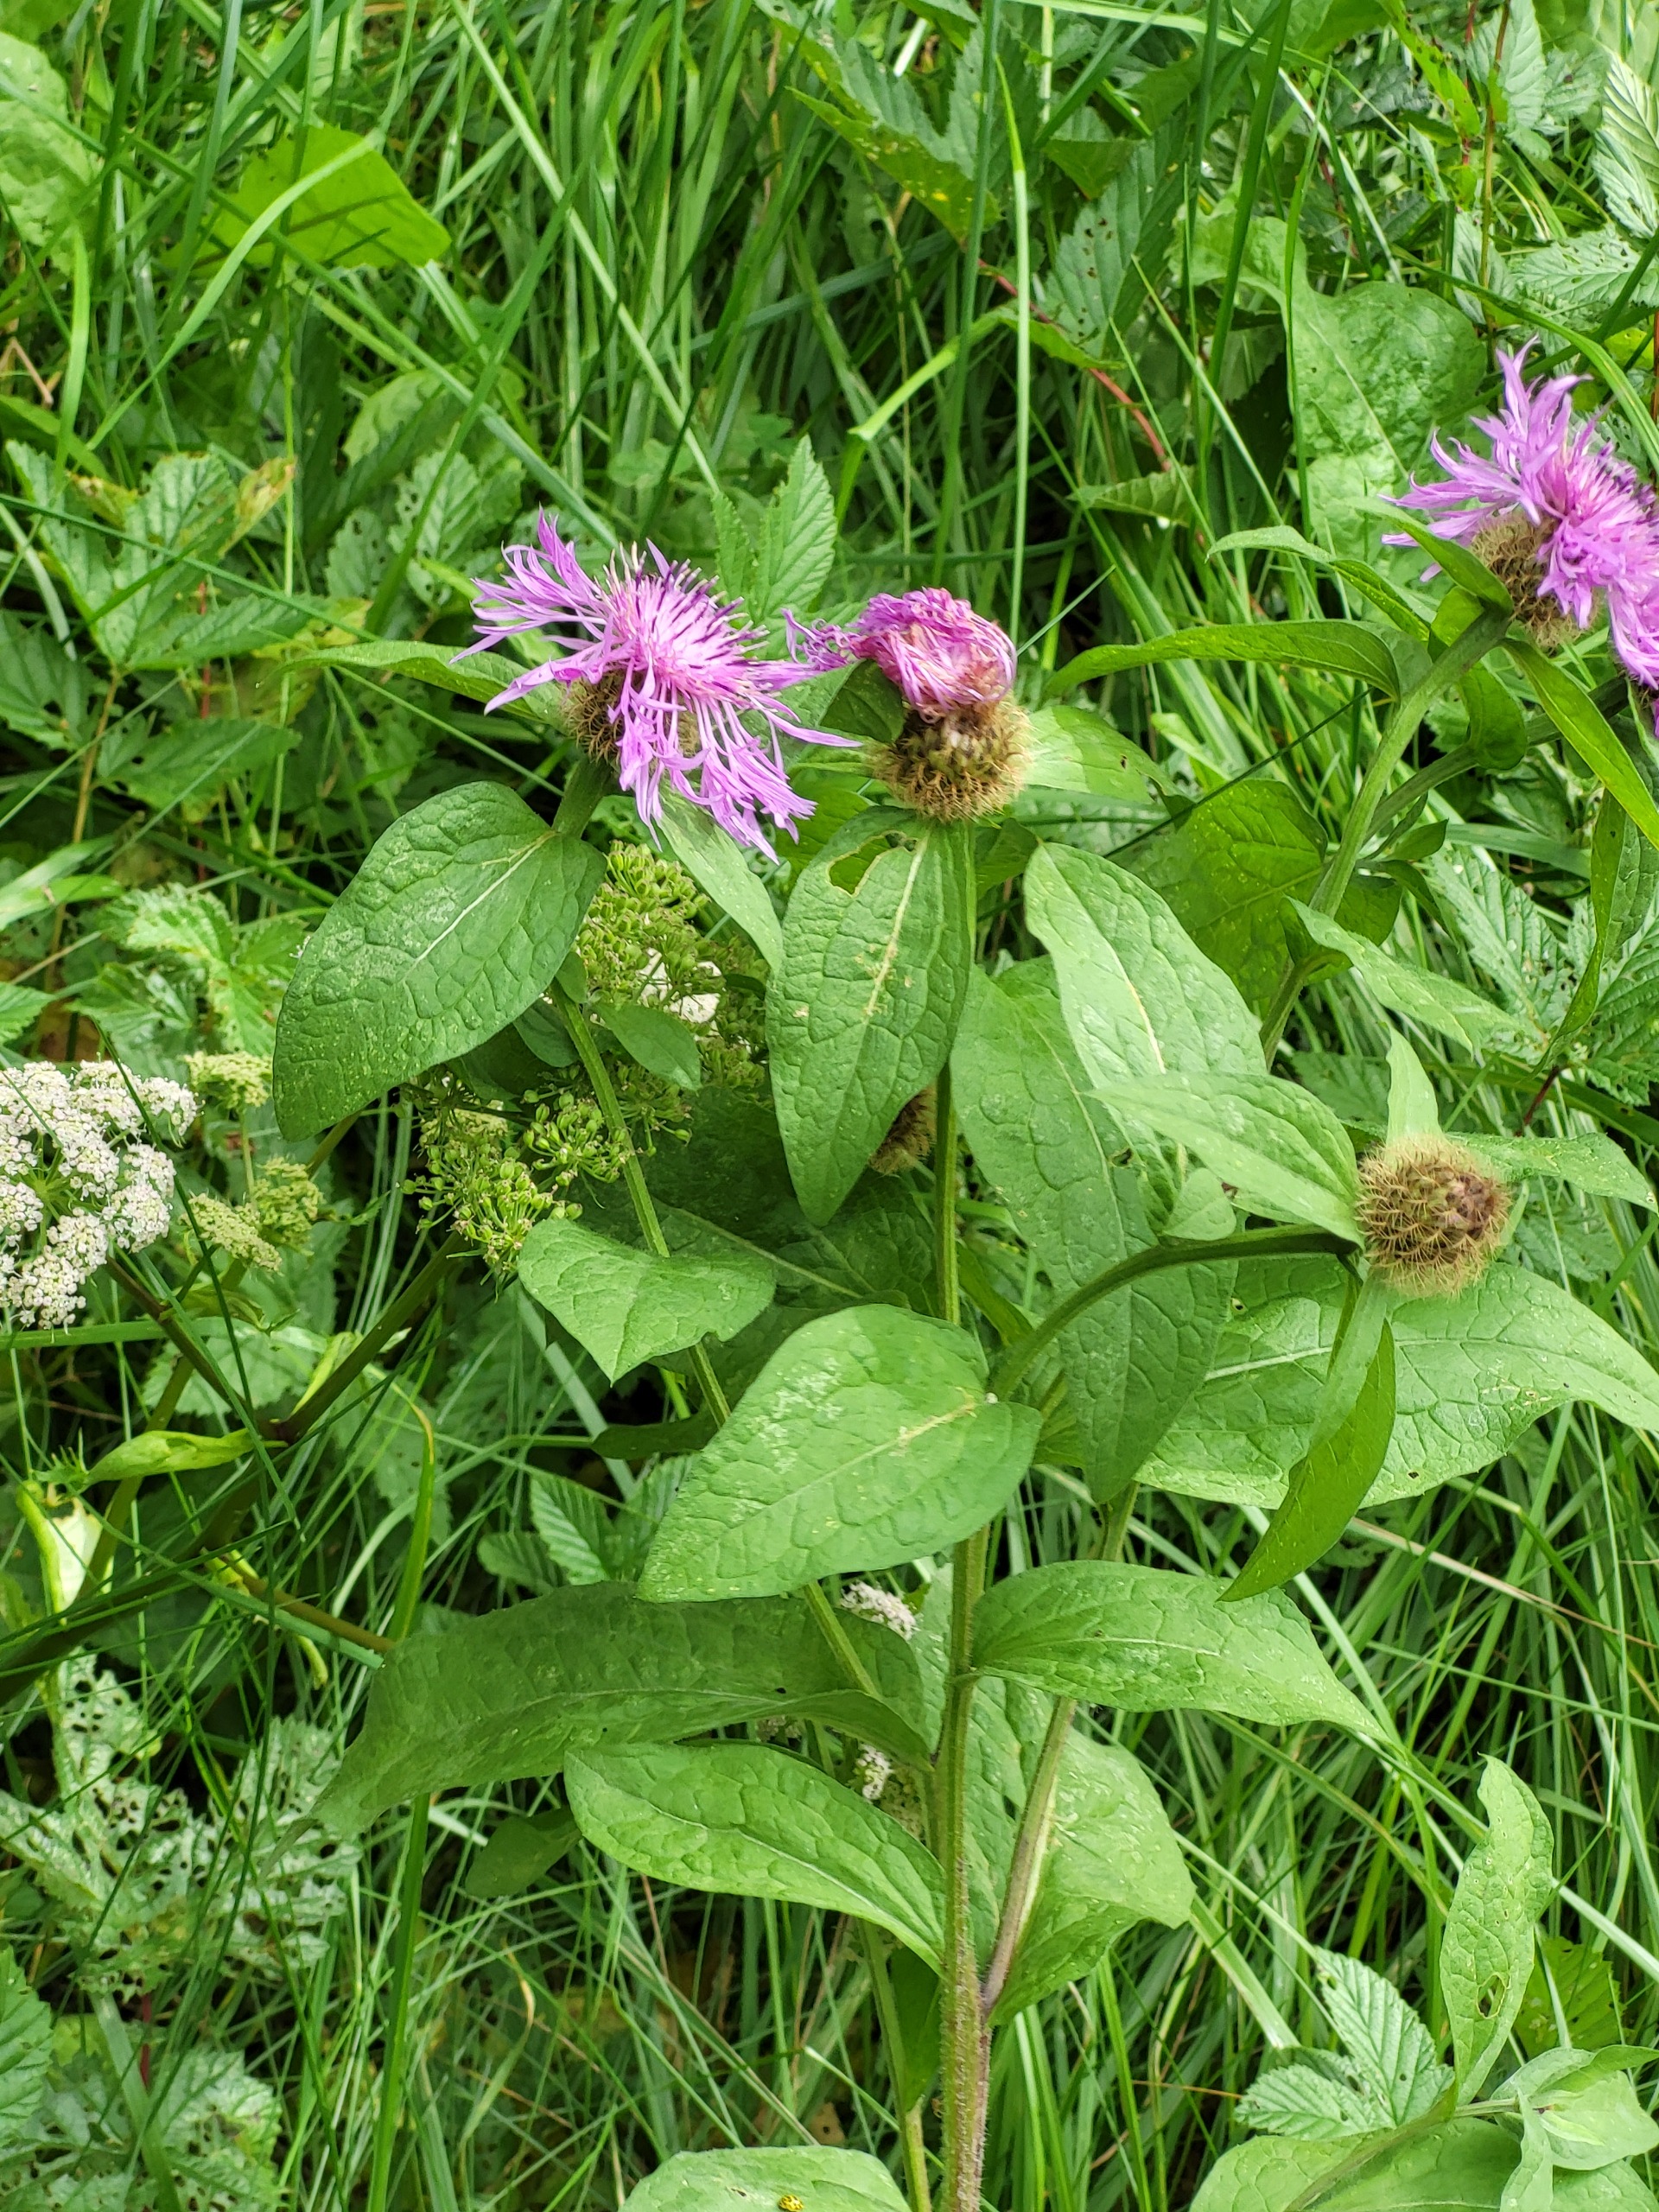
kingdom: Plantae
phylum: Tracheophyta
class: Magnoliopsida
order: Asterales
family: Asteraceae
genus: Centaurea
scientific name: Centaurea pseudophrygia
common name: Fjer-knopurt
